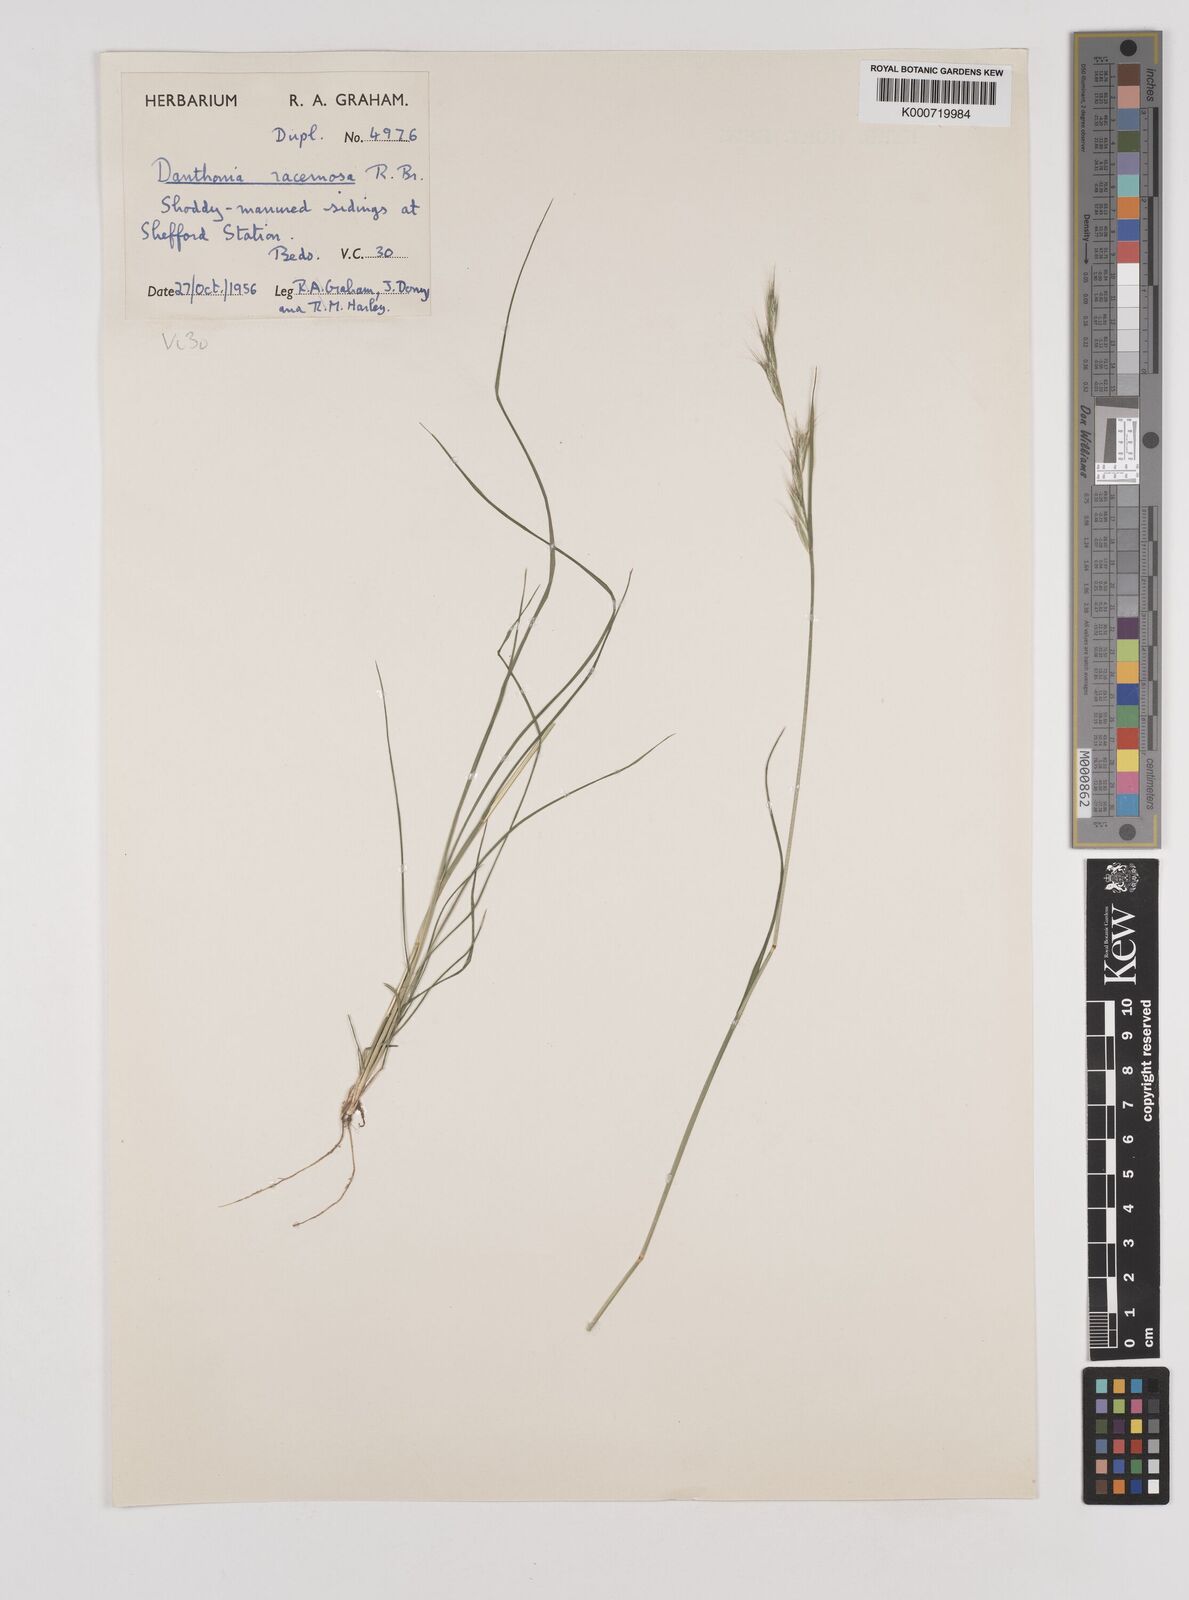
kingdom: Plantae
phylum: Tracheophyta
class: Liliopsida
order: Poales
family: Poaceae
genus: Rytidosperma
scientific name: Rytidosperma racemosum
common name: Wallaby-grass
